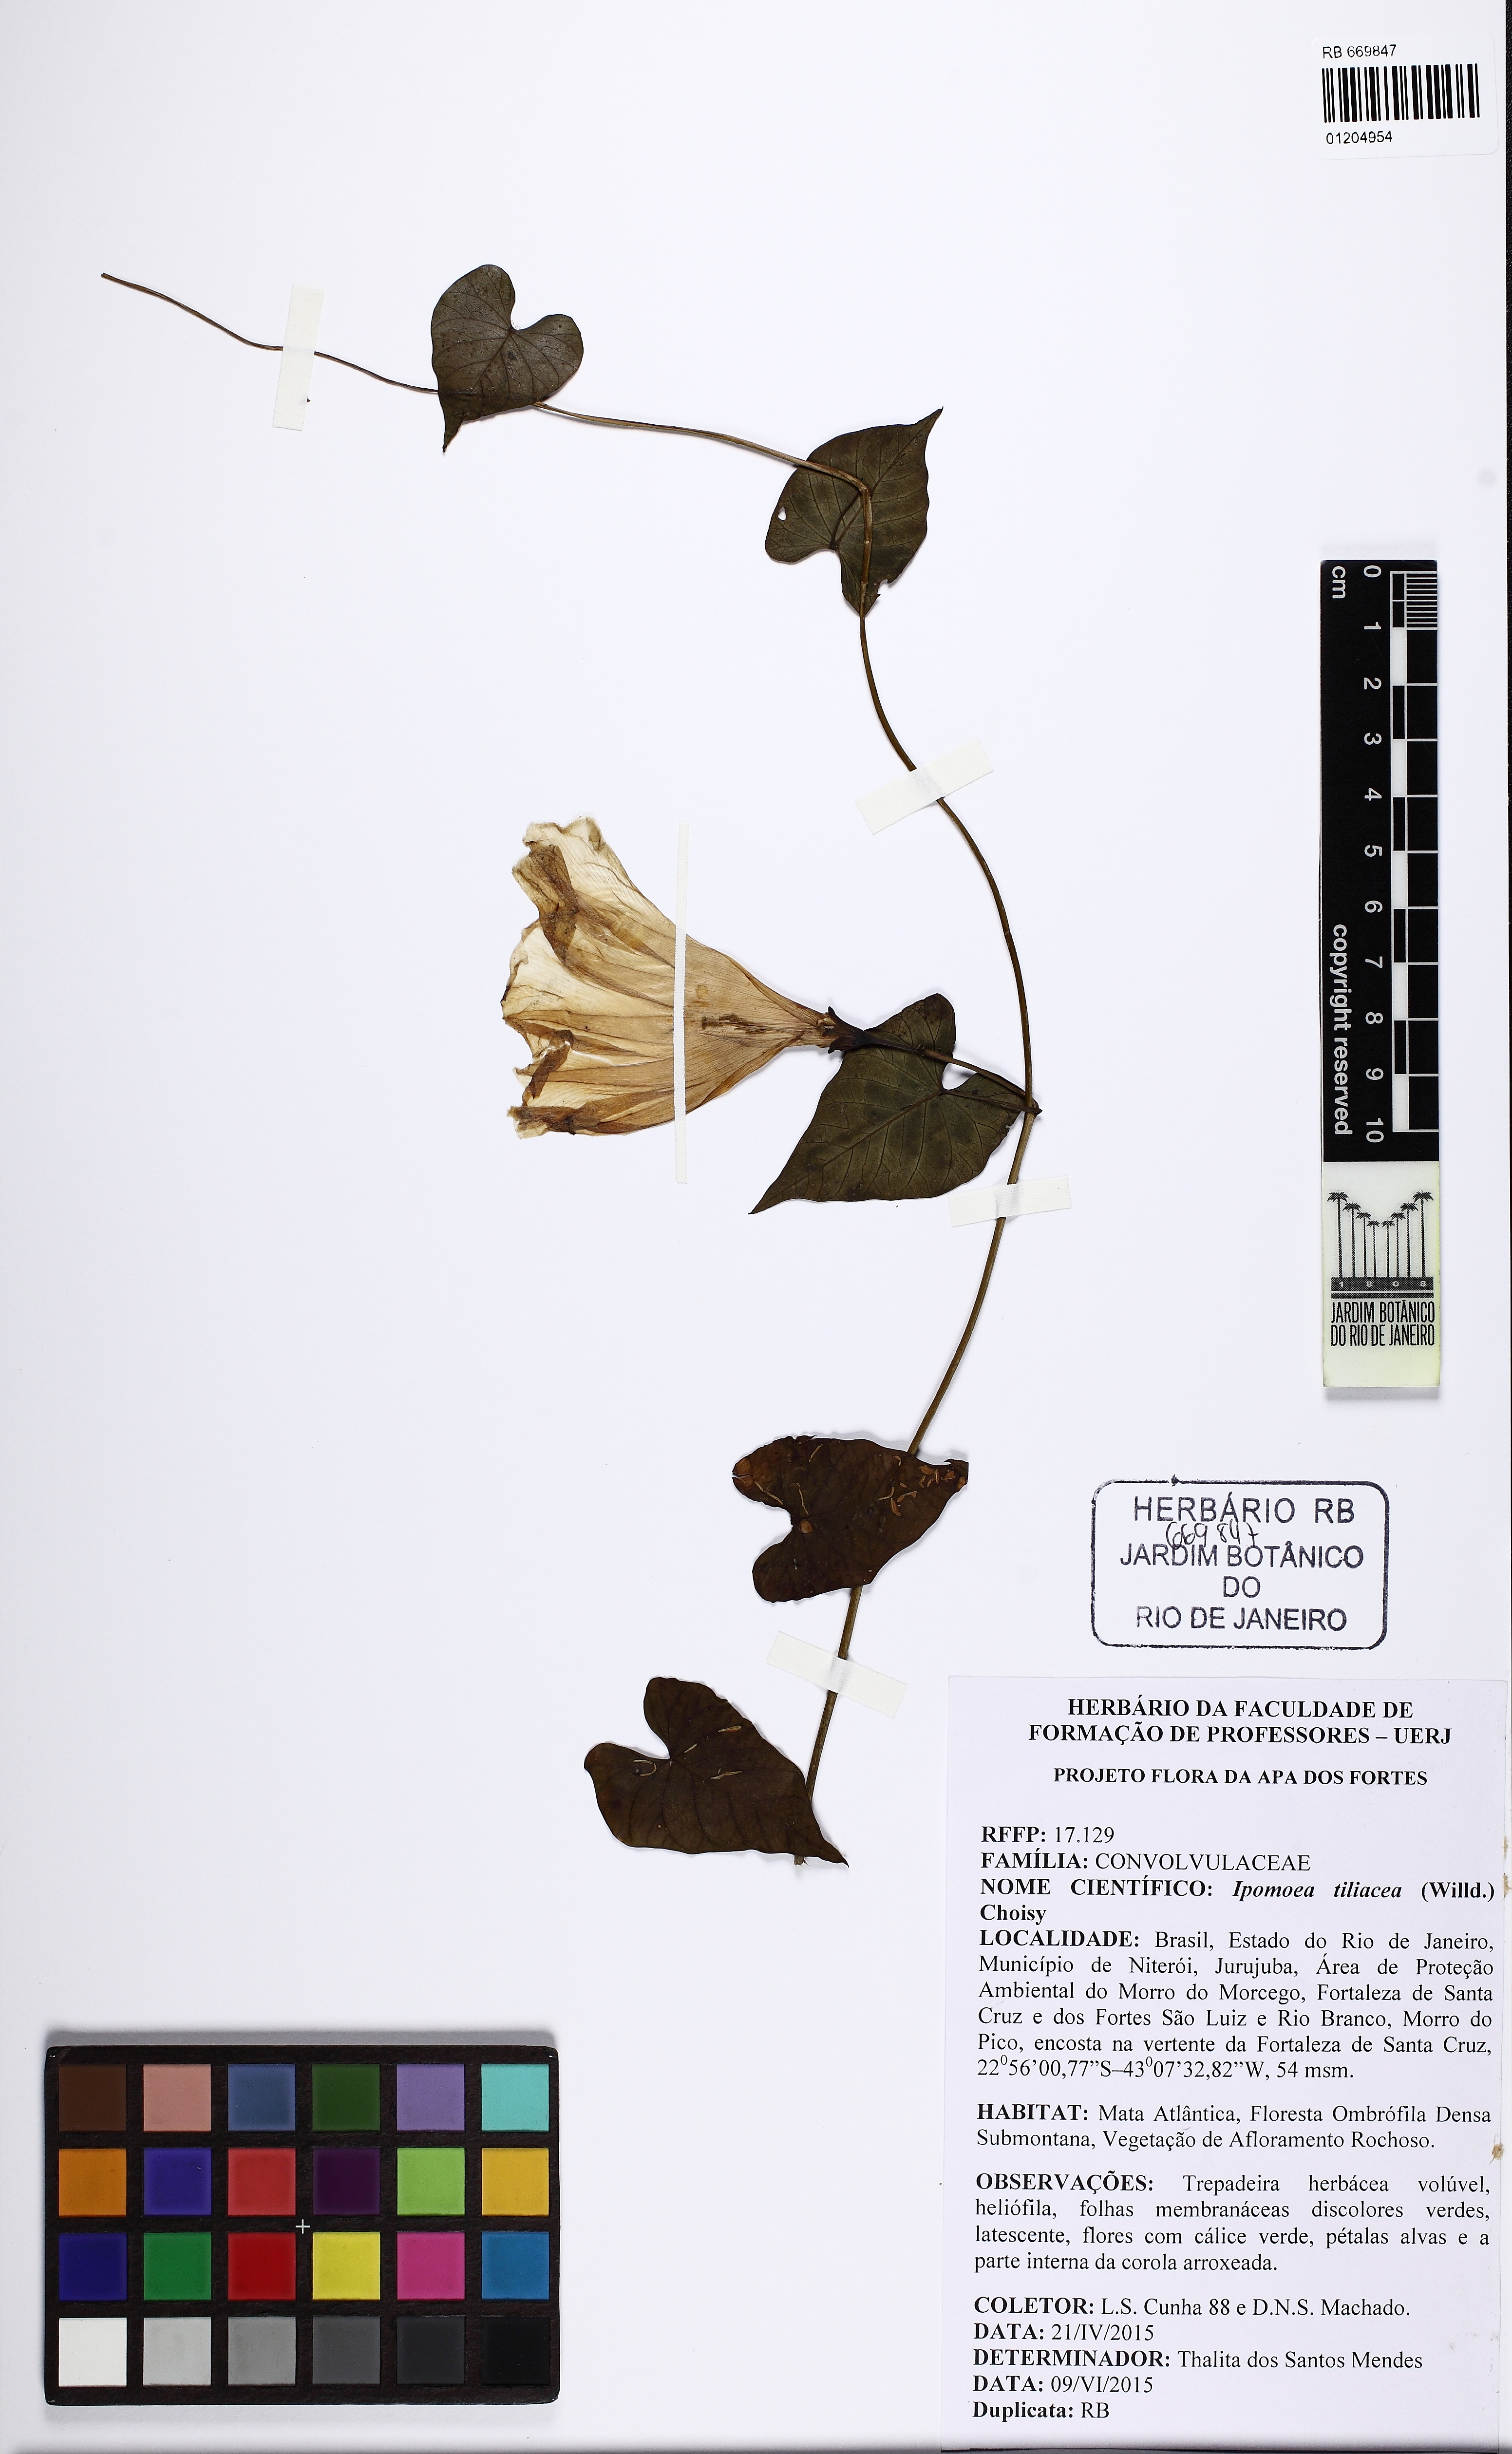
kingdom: Plantae
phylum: Tracheophyta
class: Magnoliopsida
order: Solanales
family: Convolvulaceae
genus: Ipomoea
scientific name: Ipomoea tiliacea
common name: Wild potato vine
